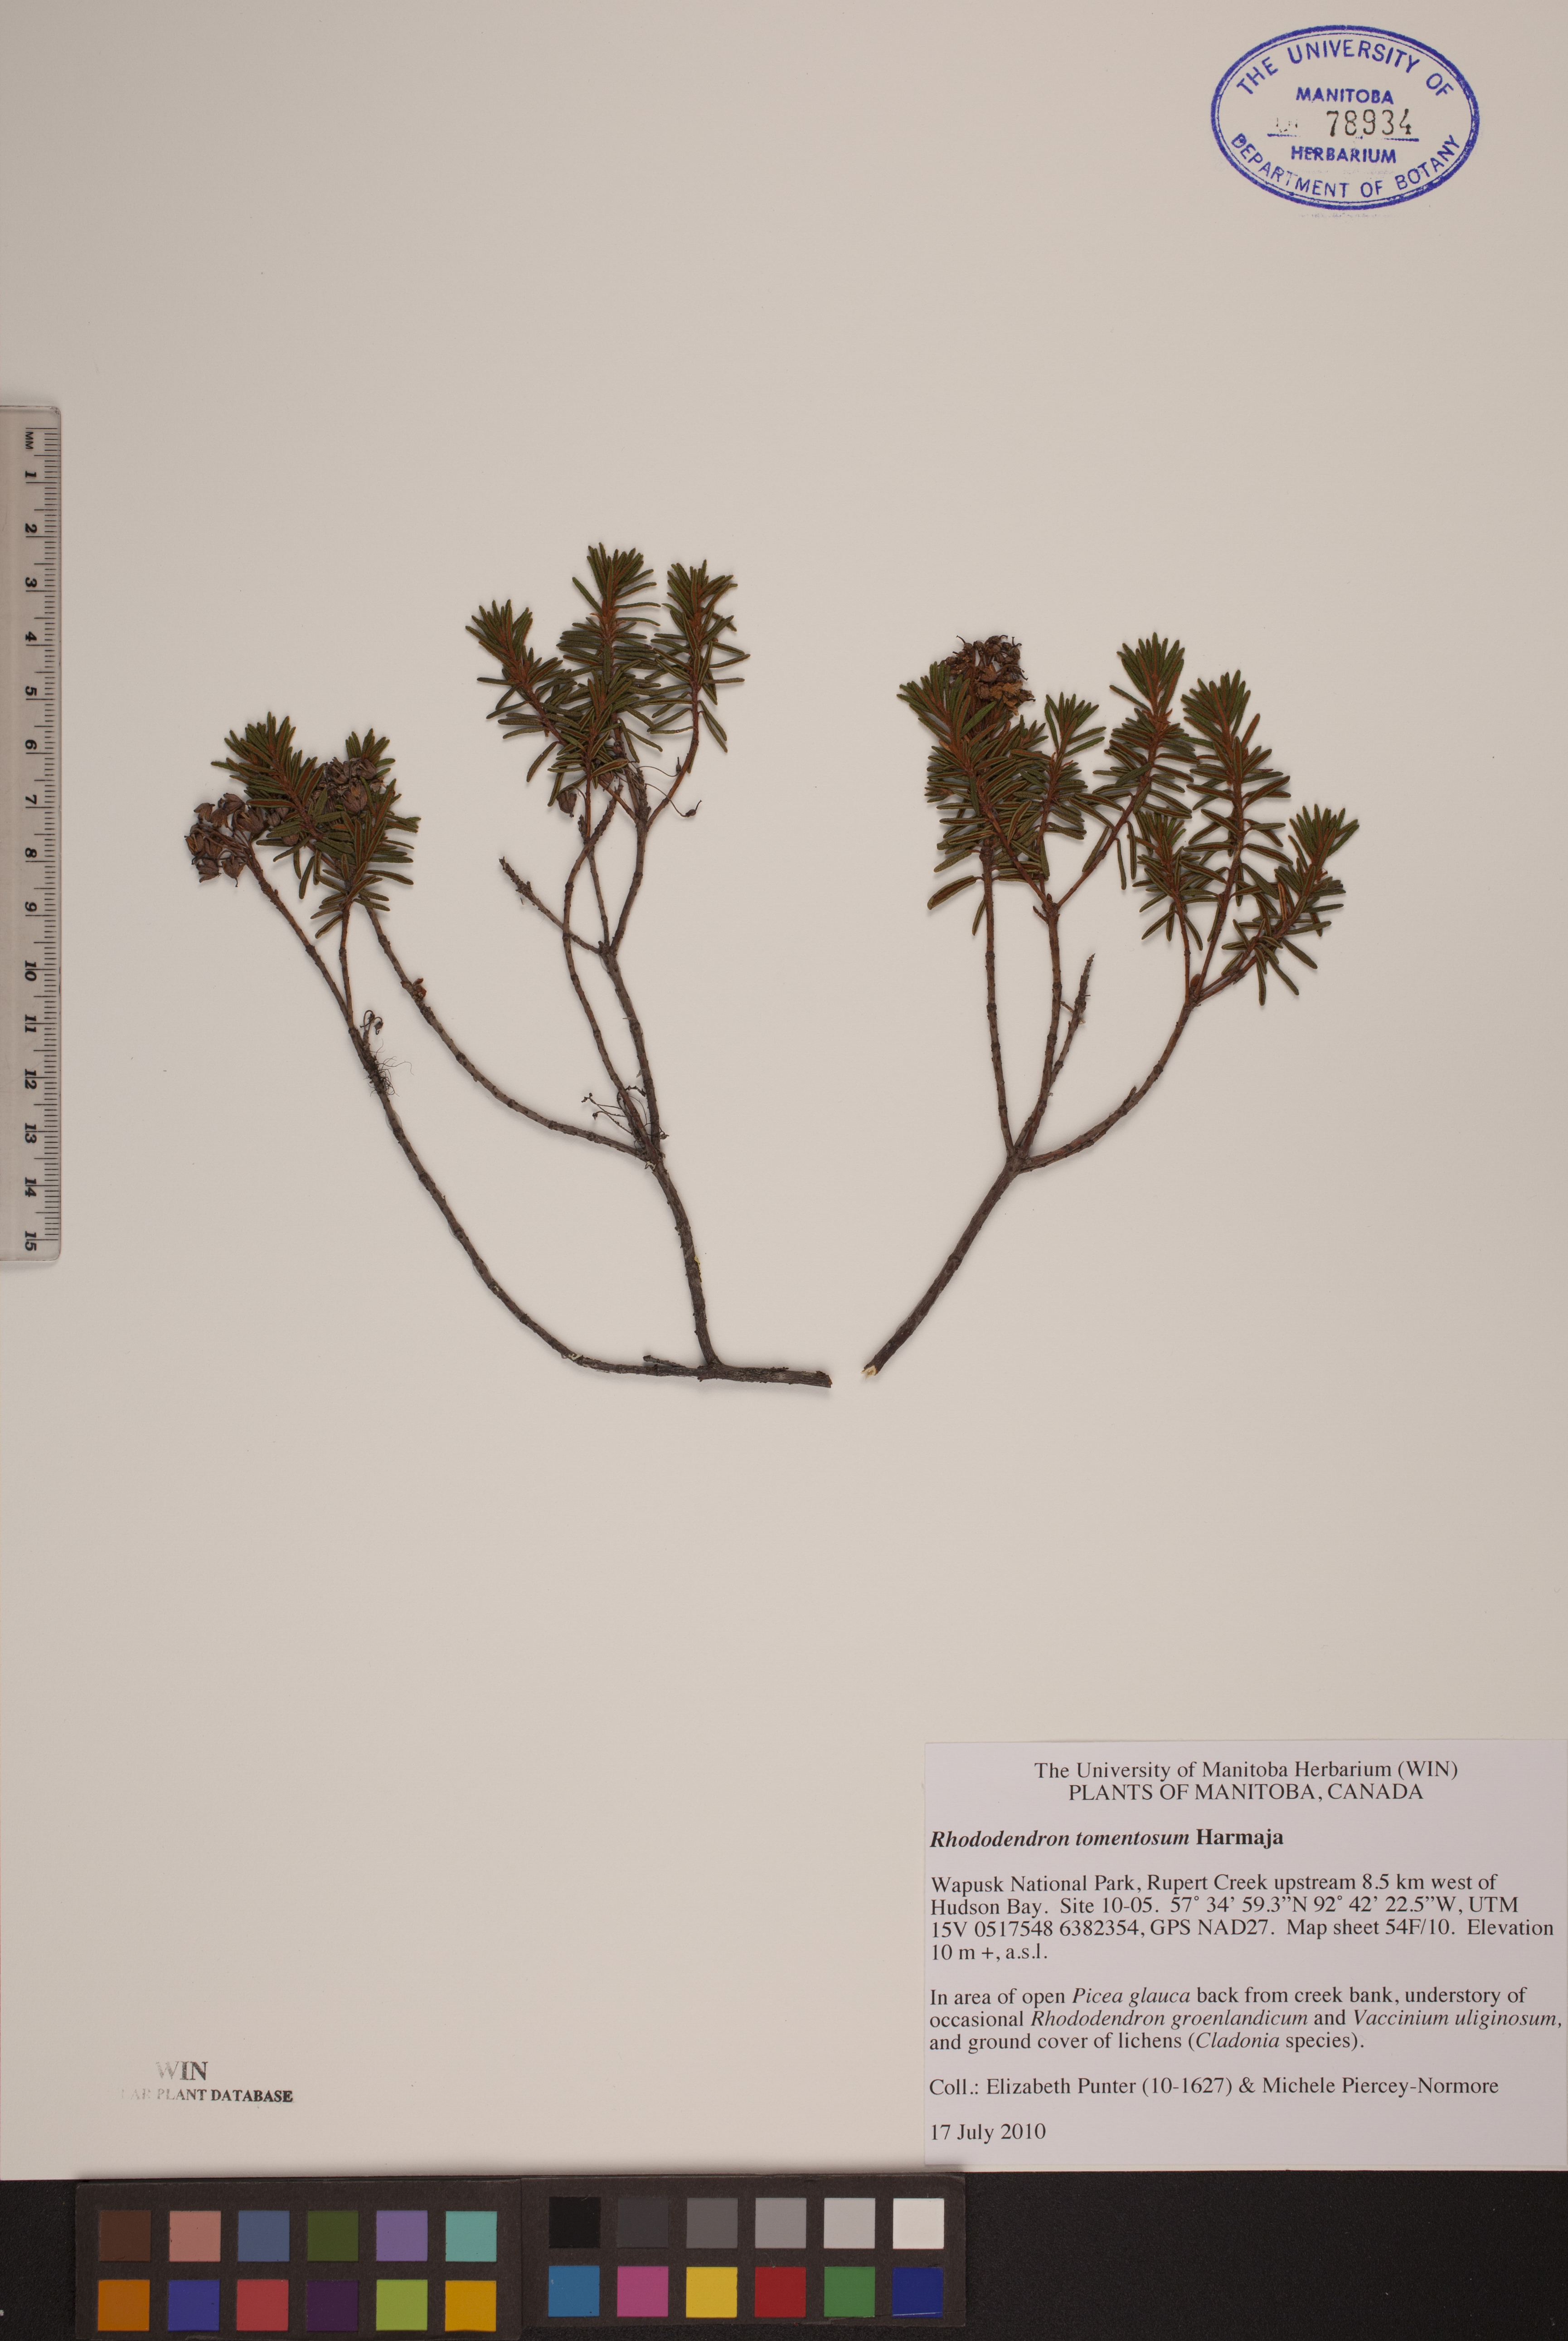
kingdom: Plantae
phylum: Tracheophyta
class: Magnoliopsida
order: Ericales
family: Ericaceae
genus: Rhododendron
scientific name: Rhododendron tomentosum
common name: Marsh labrador tea
